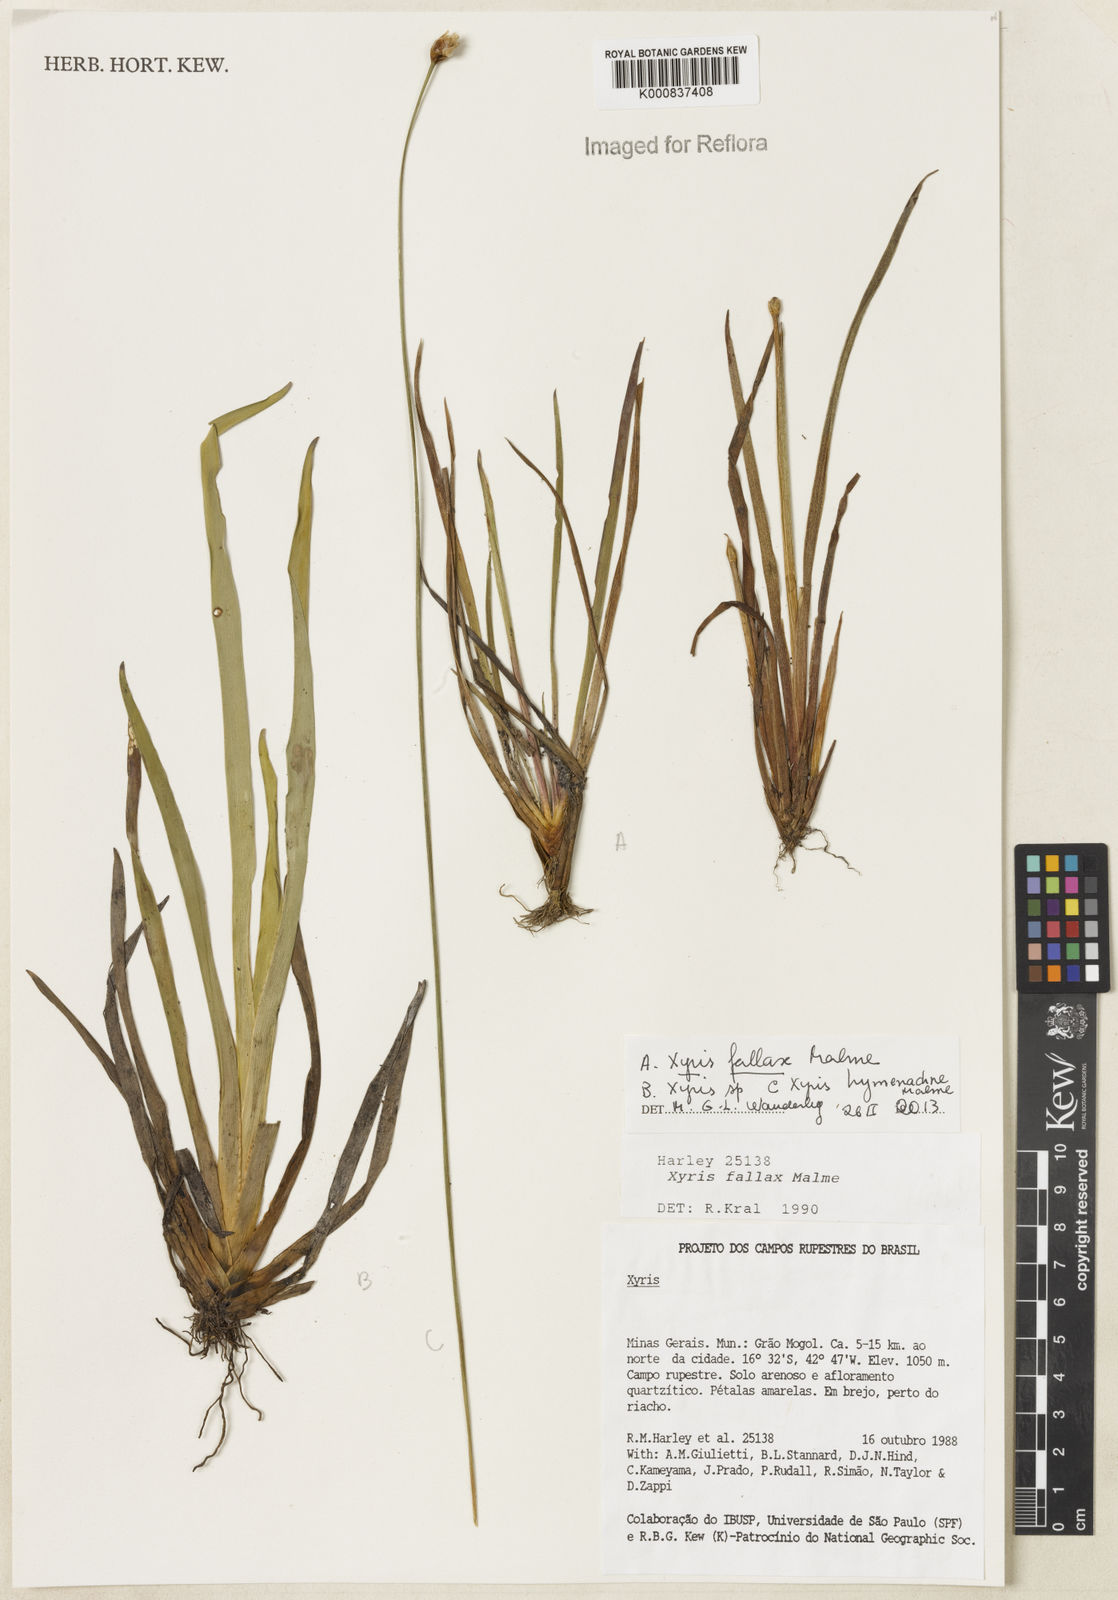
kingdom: Plantae
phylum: Tracheophyta
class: Liliopsida
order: Poales
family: Xyridaceae
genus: Xyris
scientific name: Xyris fallax
